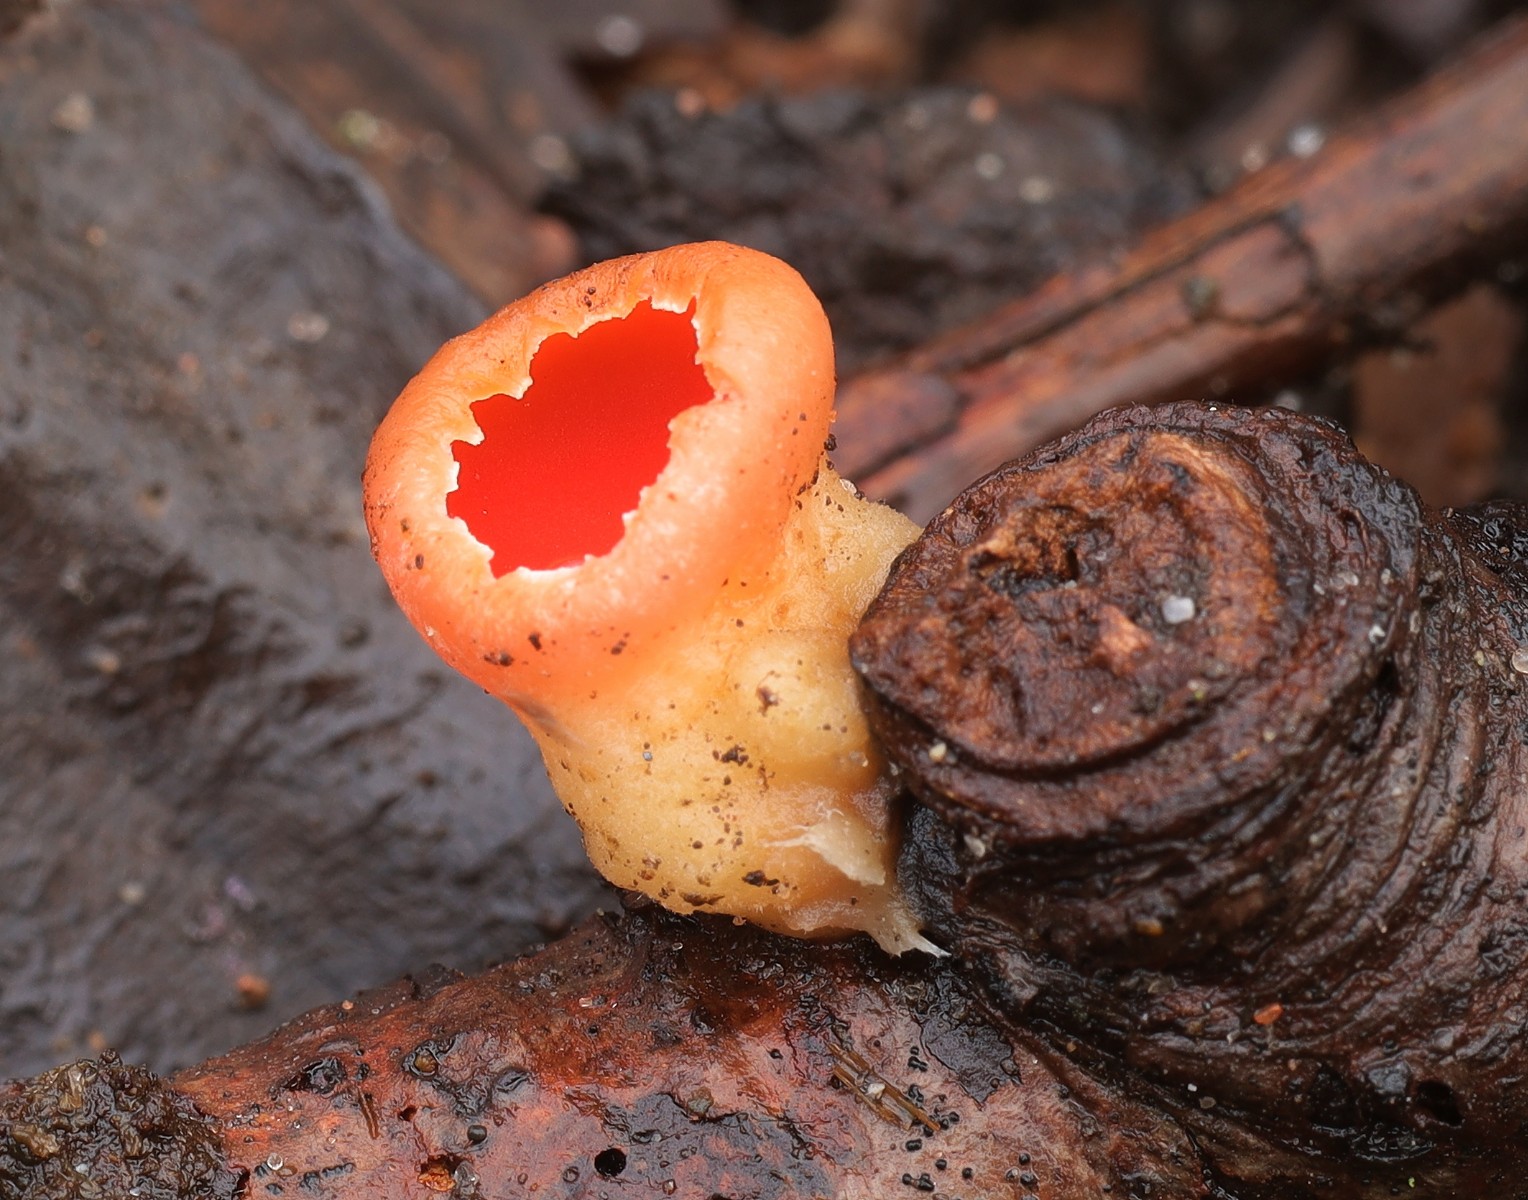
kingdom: Fungi
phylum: Ascomycota
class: Pezizomycetes
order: Pezizales
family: Sarcoscyphaceae
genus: Sarcoscypha
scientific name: Sarcoscypha austriaca
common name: krølhåret pragtbæger
